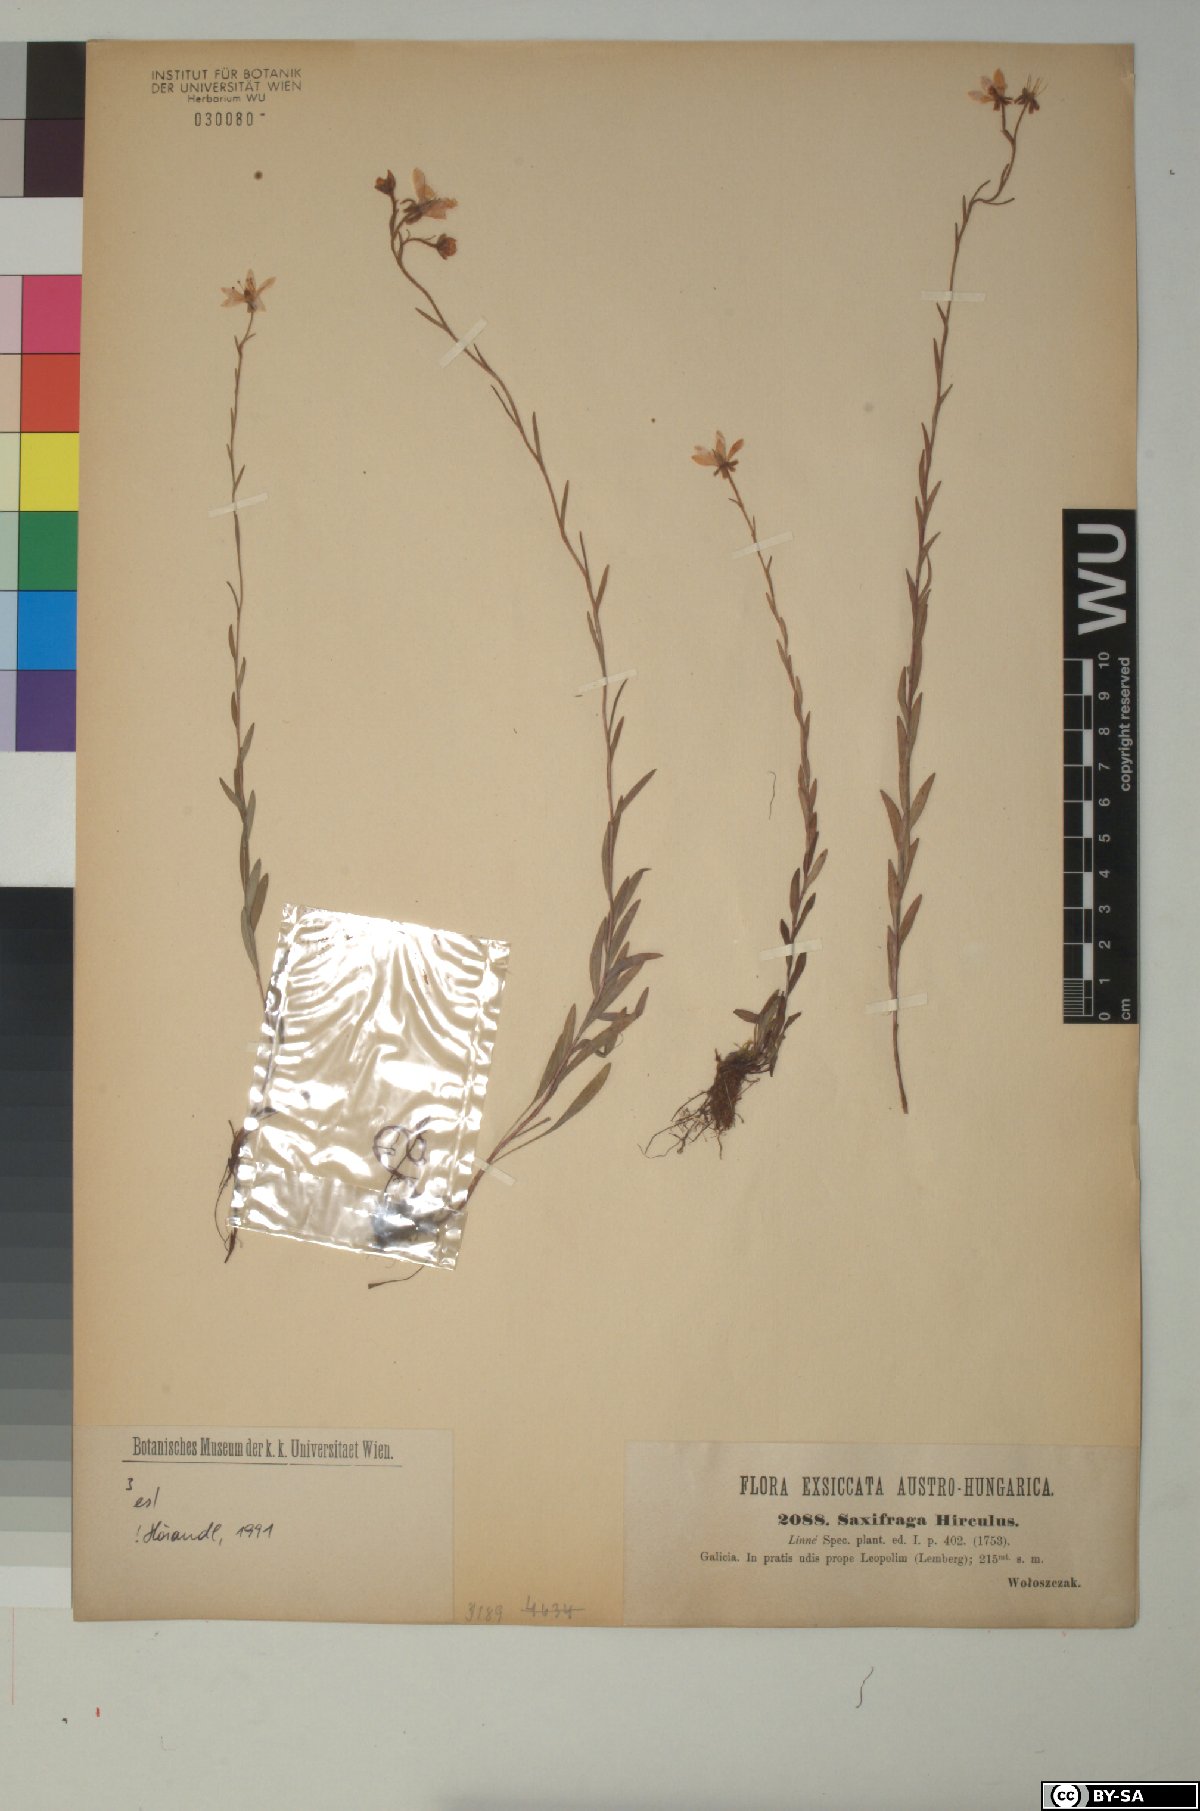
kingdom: Plantae
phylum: Tracheophyta
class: Magnoliopsida
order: Saxifragales
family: Saxifragaceae
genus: Saxifraga
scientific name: Saxifraga hirculus
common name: Yellow marsh saxifrage
